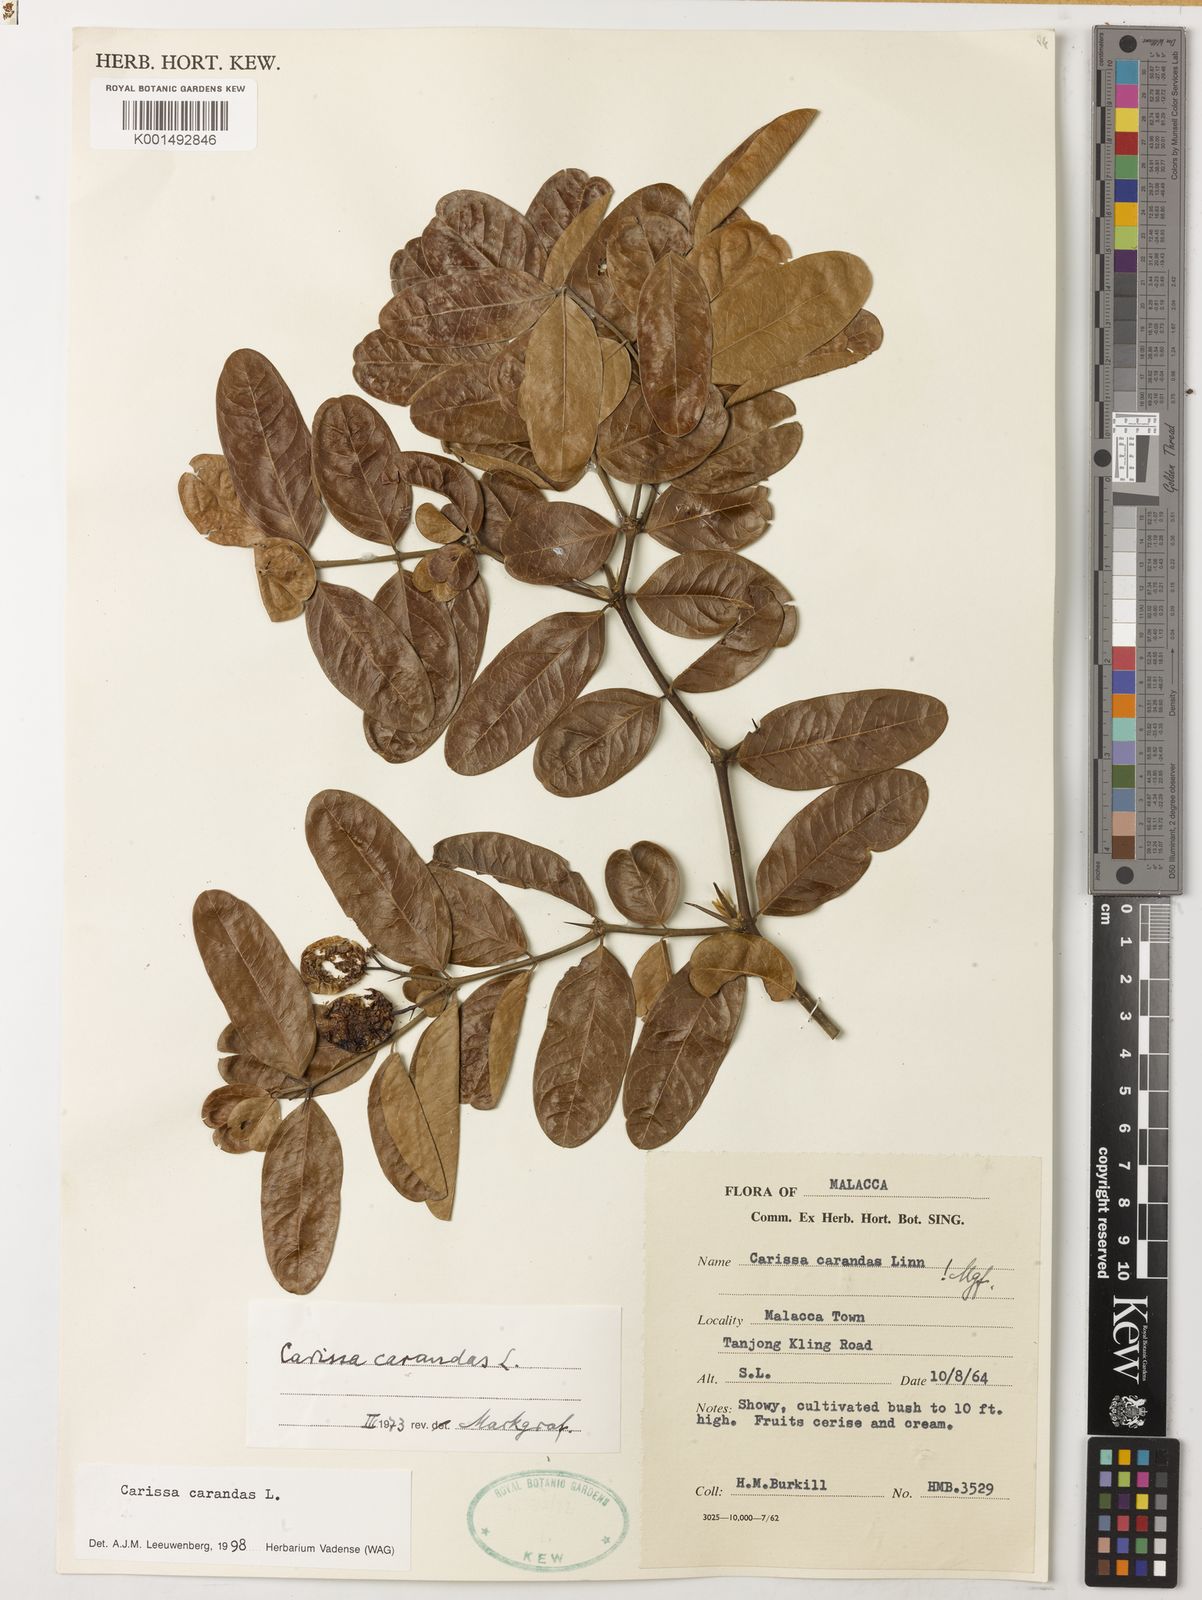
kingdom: Plantae
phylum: Tracheophyta
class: Magnoliopsida
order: Gentianales
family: Apocynaceae
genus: Carissa
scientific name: Carissa carandas
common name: Karanda
